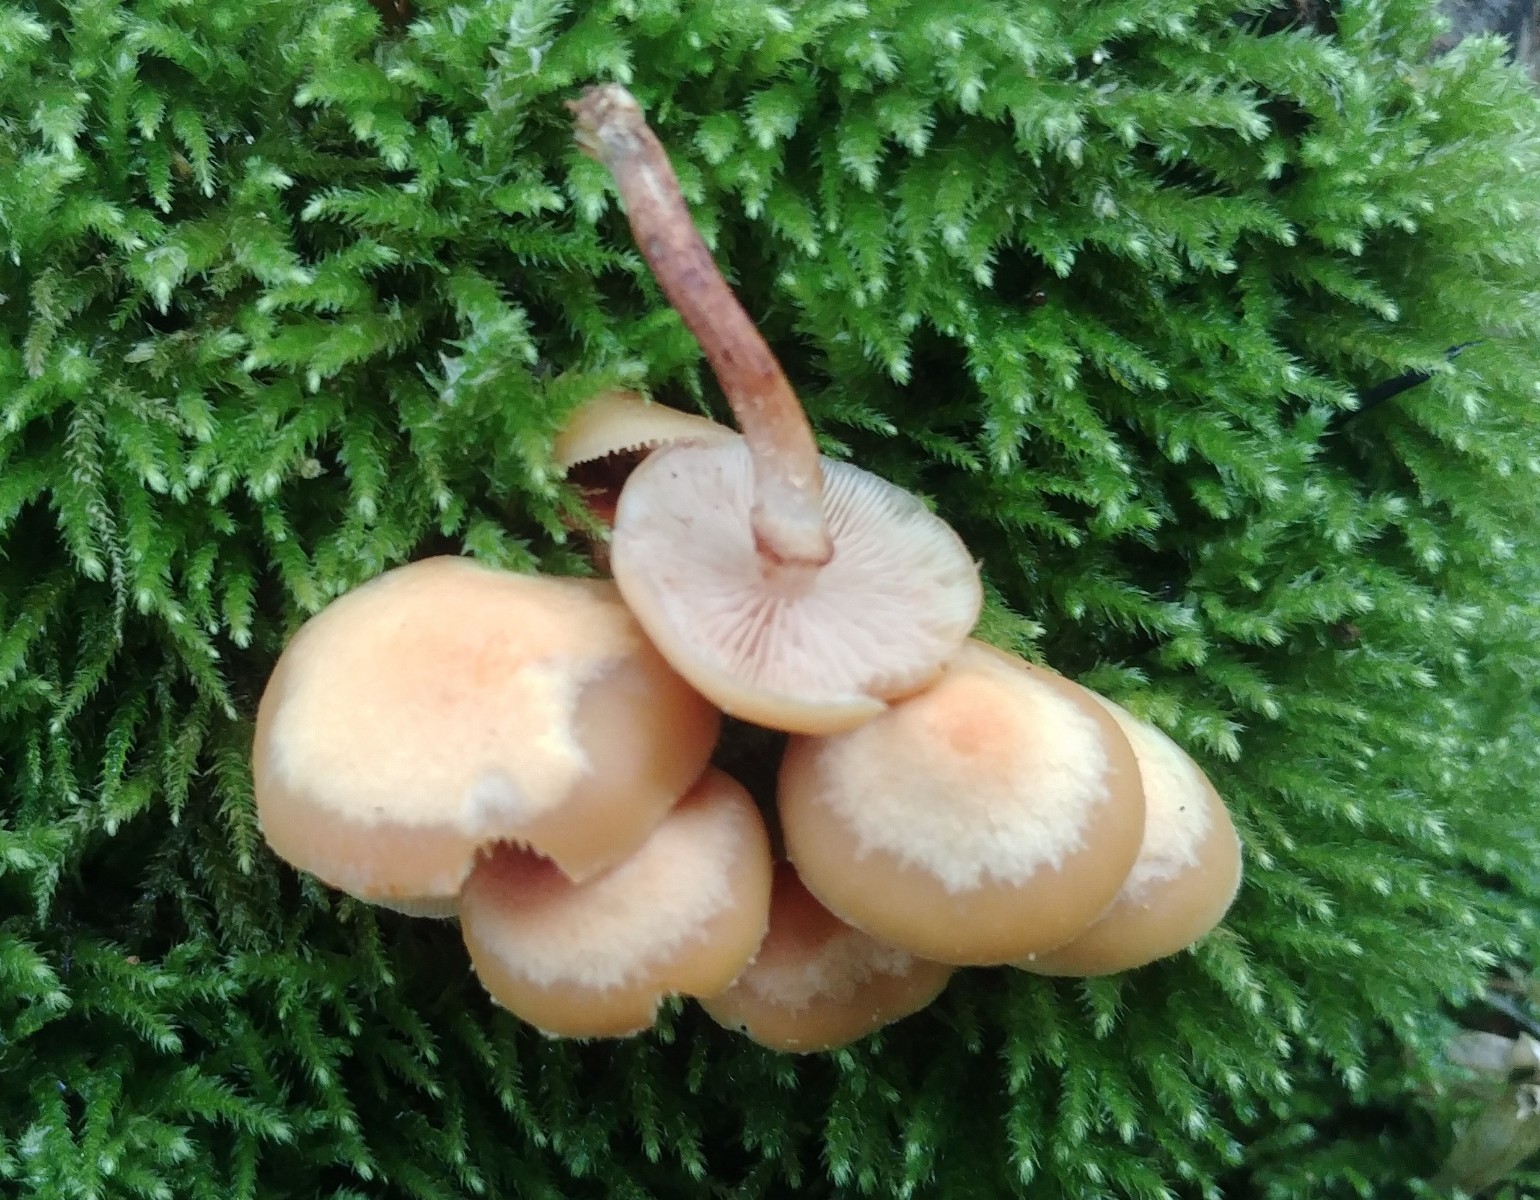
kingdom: Fungi
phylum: Basidiomycota
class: Agaricomycetes
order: Agaricales
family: Strophariaceae
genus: Kuehneromyces
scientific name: Kuehneromyces mutabilis
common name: foranderlig skælhat
